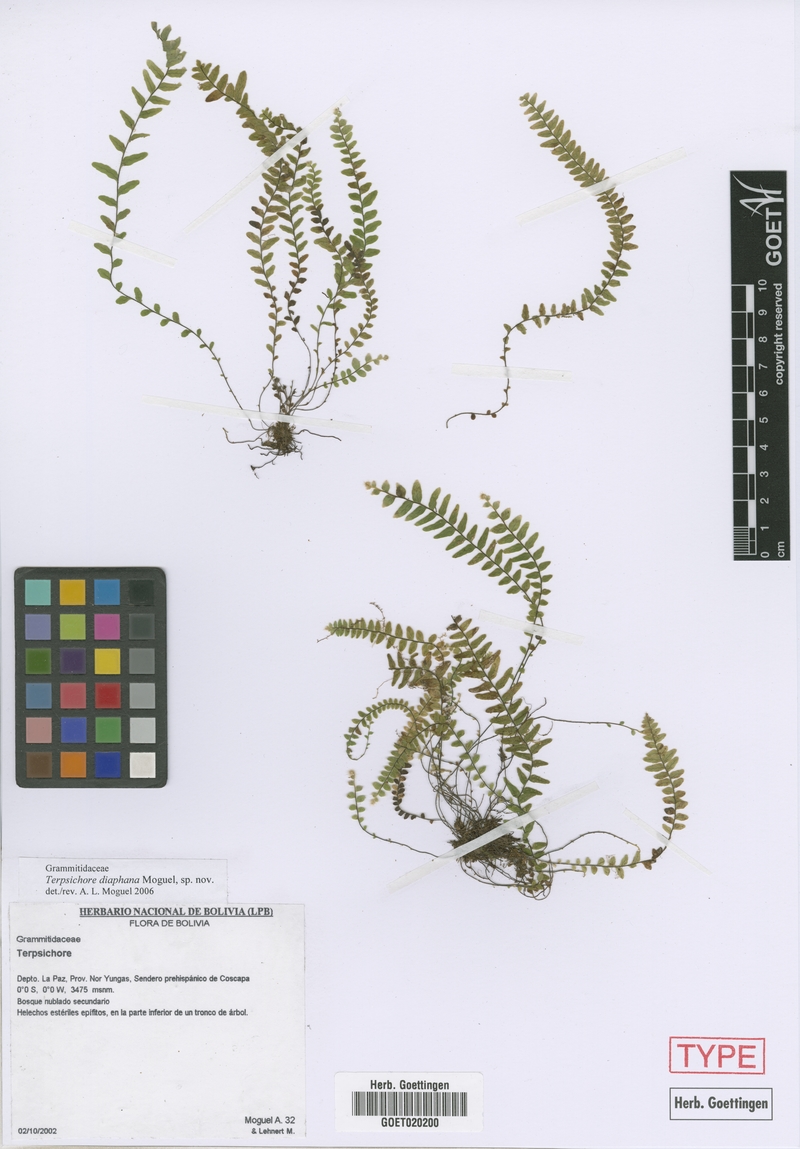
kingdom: Plantae
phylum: Tracheophyta
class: Polypodiopsida
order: Polypodiales
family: Polypodiaceae
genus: Alansmia
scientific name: Alansmia diaphana
